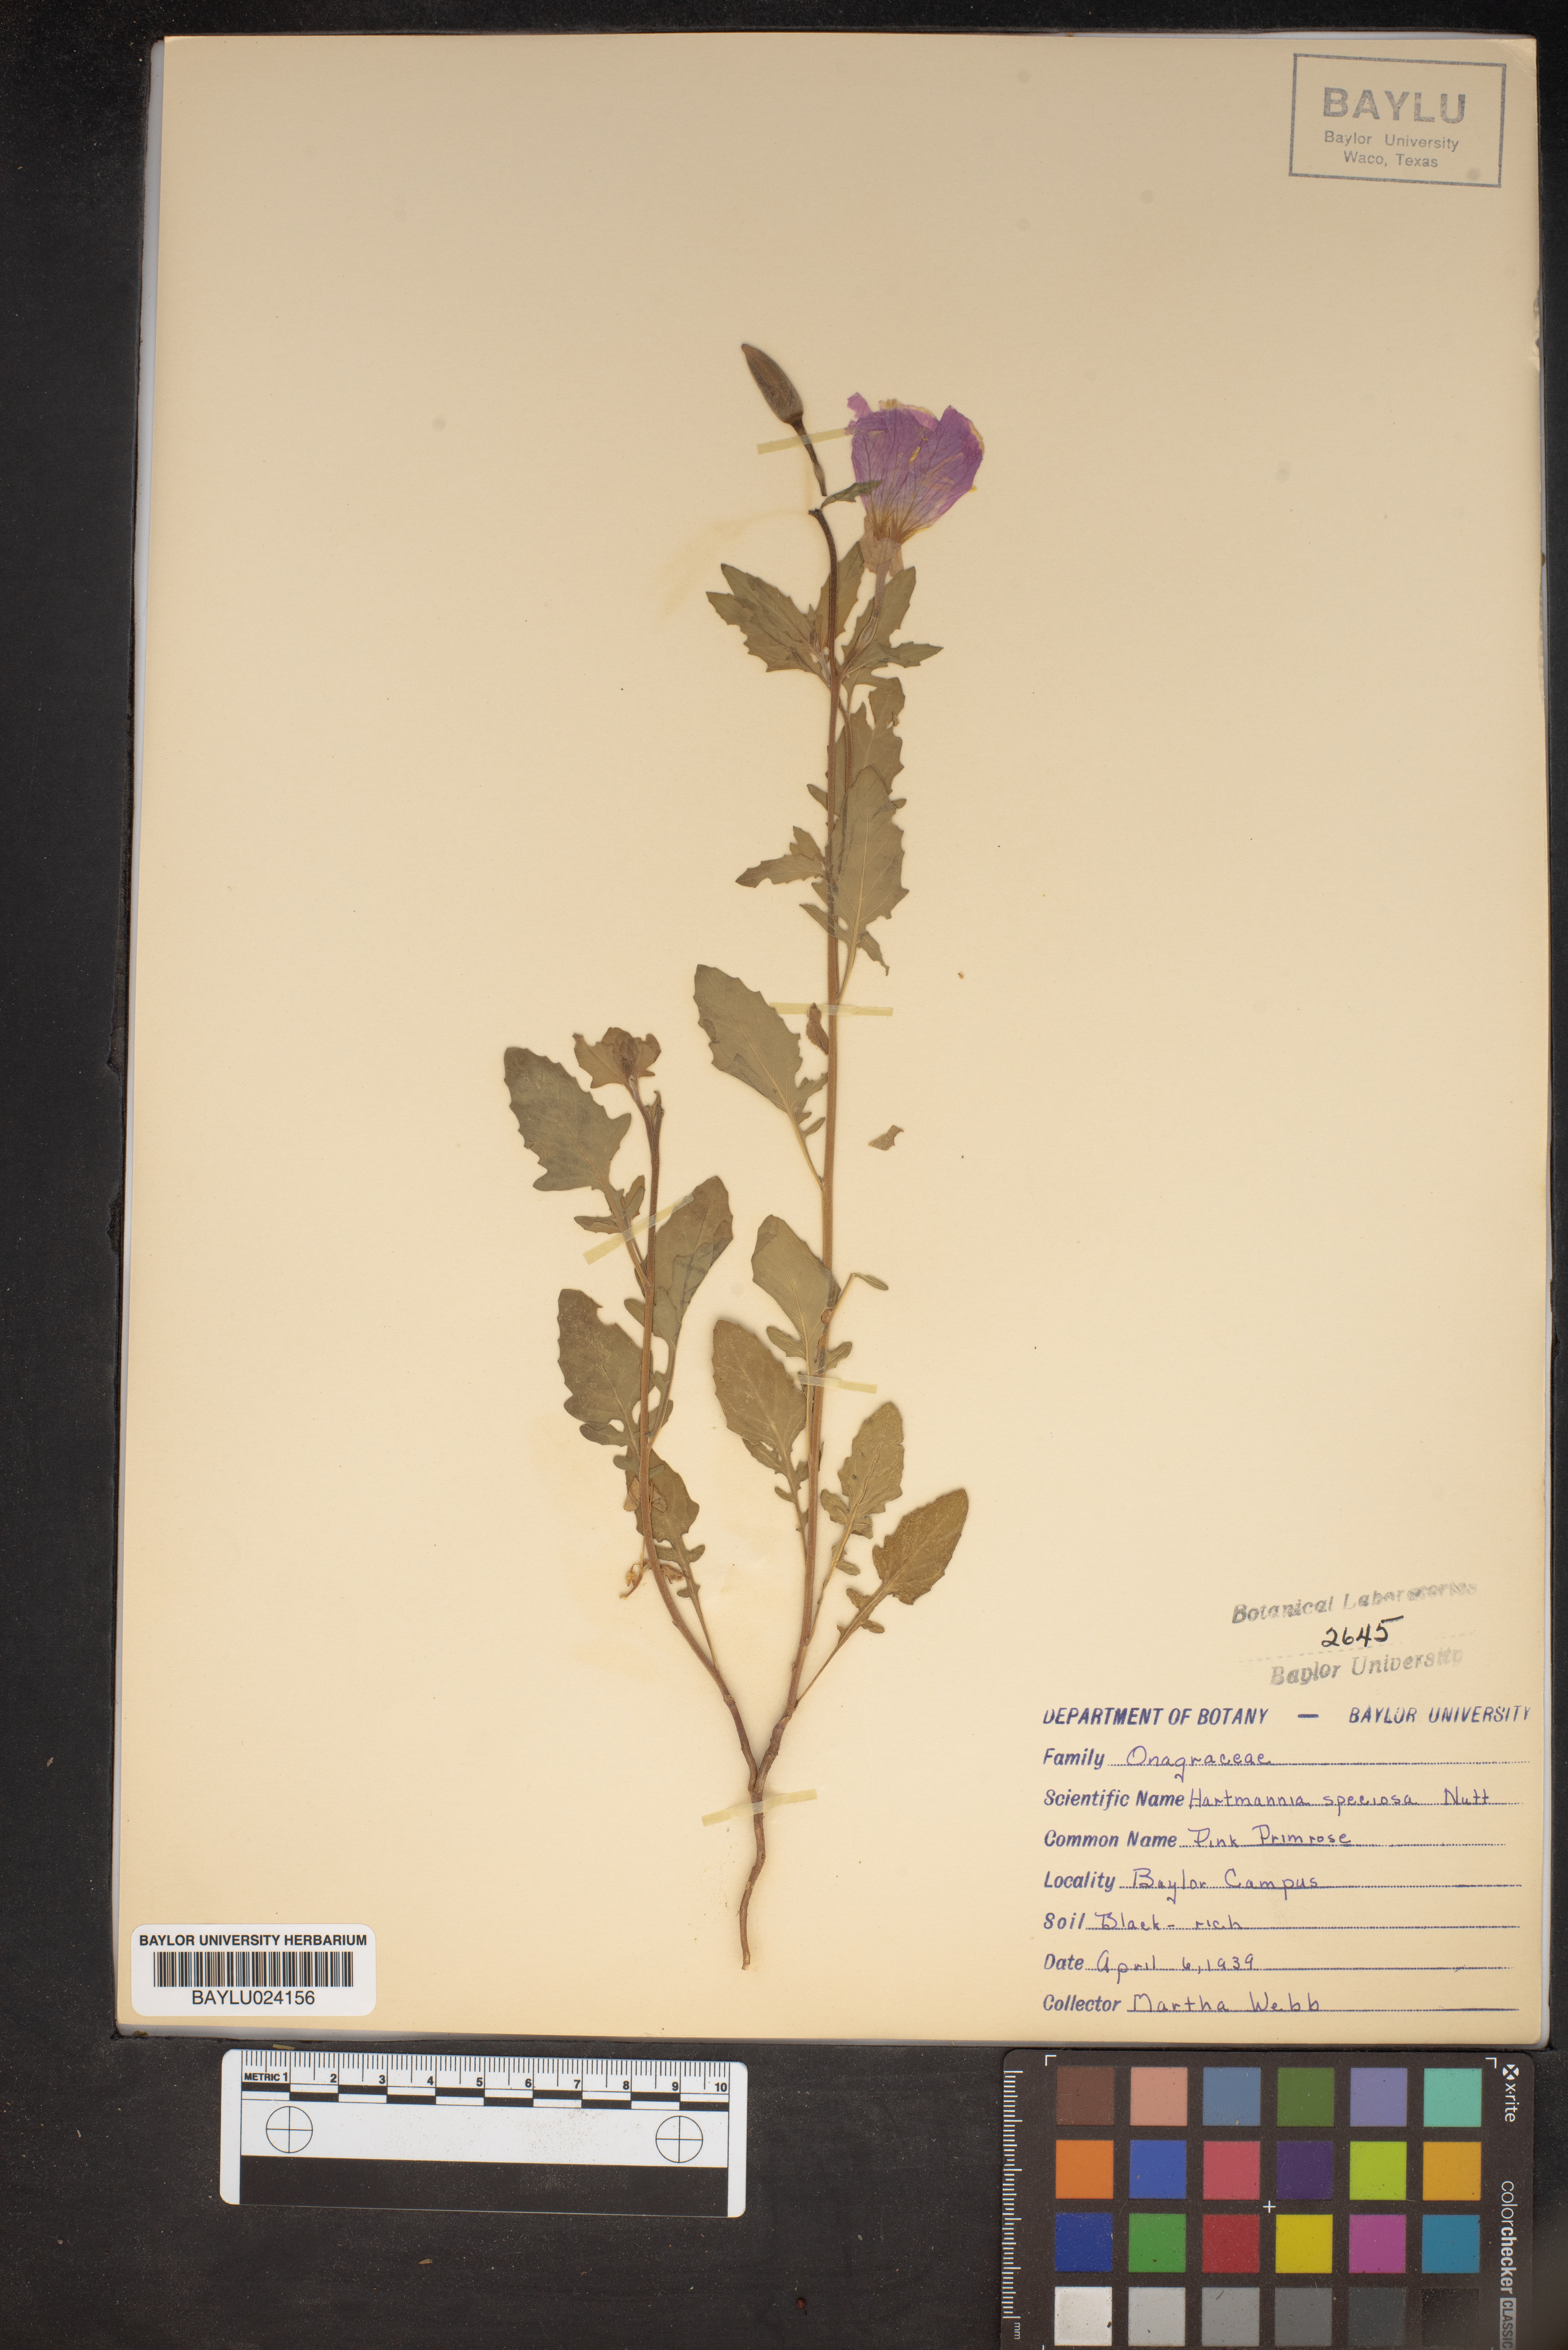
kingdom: Plantae
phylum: Tracheophyta
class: Magnoliopsida
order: Myrtales
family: Onagraceae
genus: Oenothera
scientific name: Oenothera speciosa
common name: White evening-primrose
